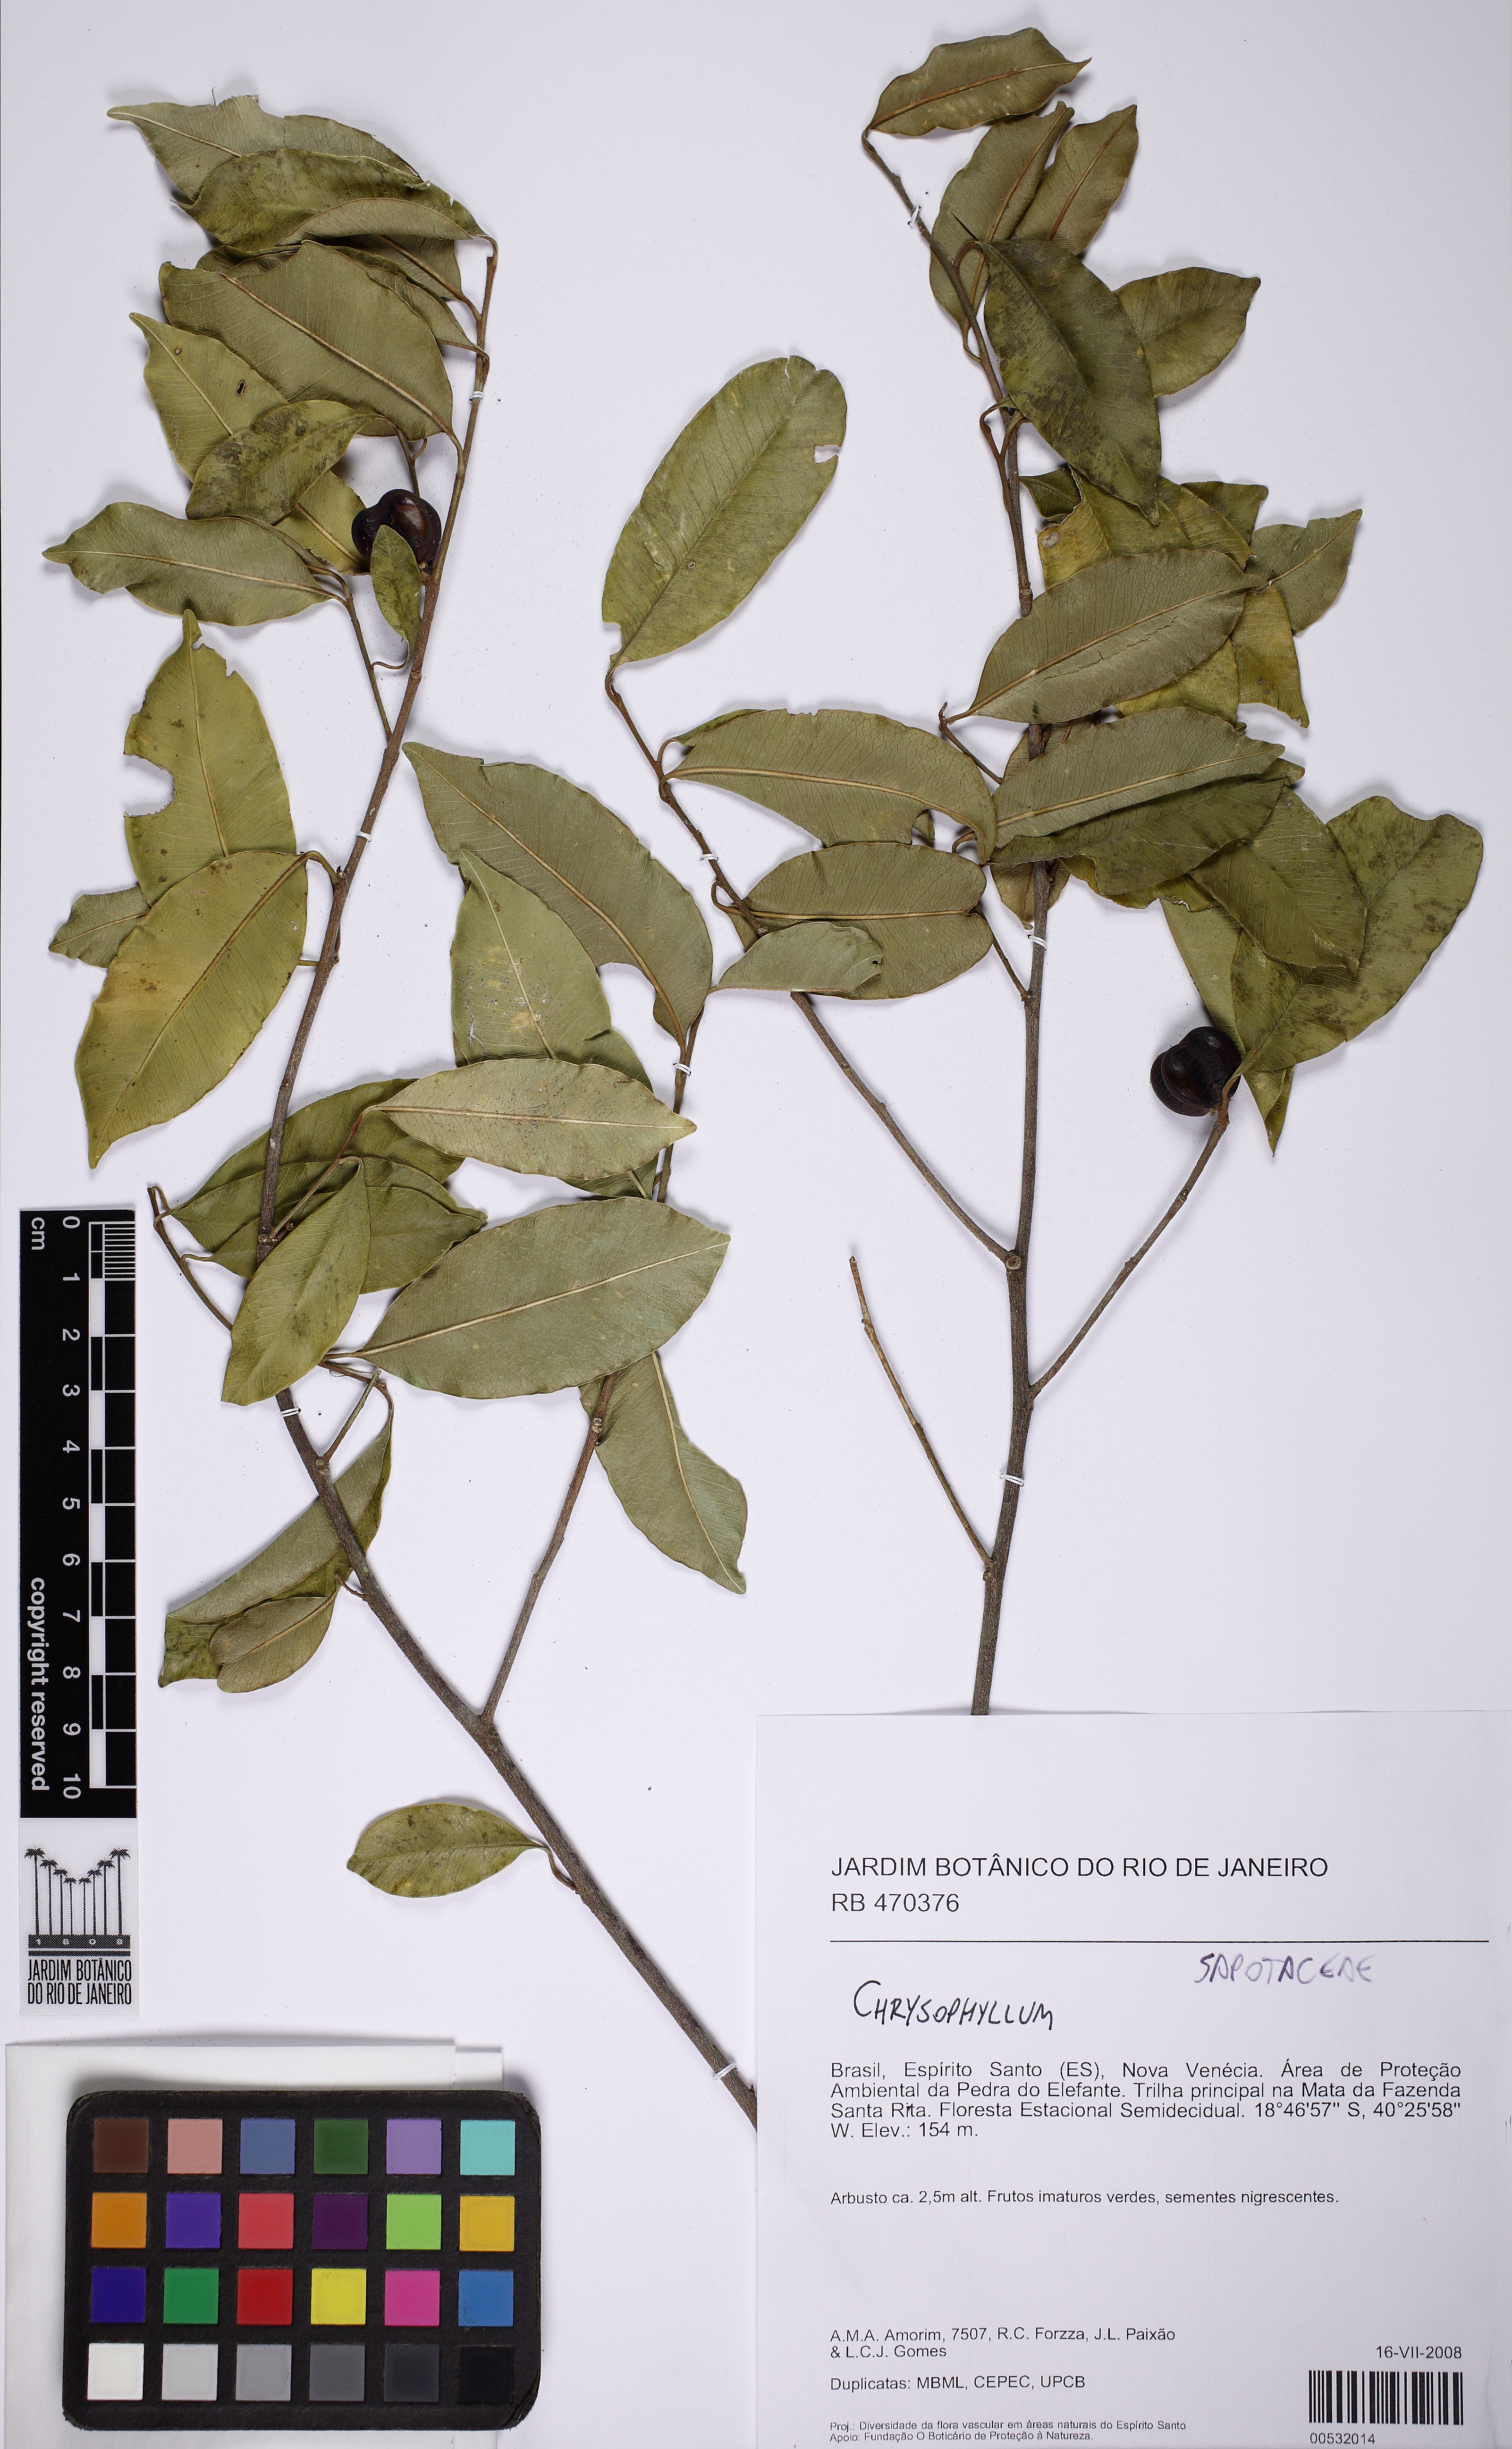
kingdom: Plantae
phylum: Tracheophyta
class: Magnoliopsida
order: Ericales
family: Sapotaceae
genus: Chrysophyllum
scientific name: Chrysophyllum viride
